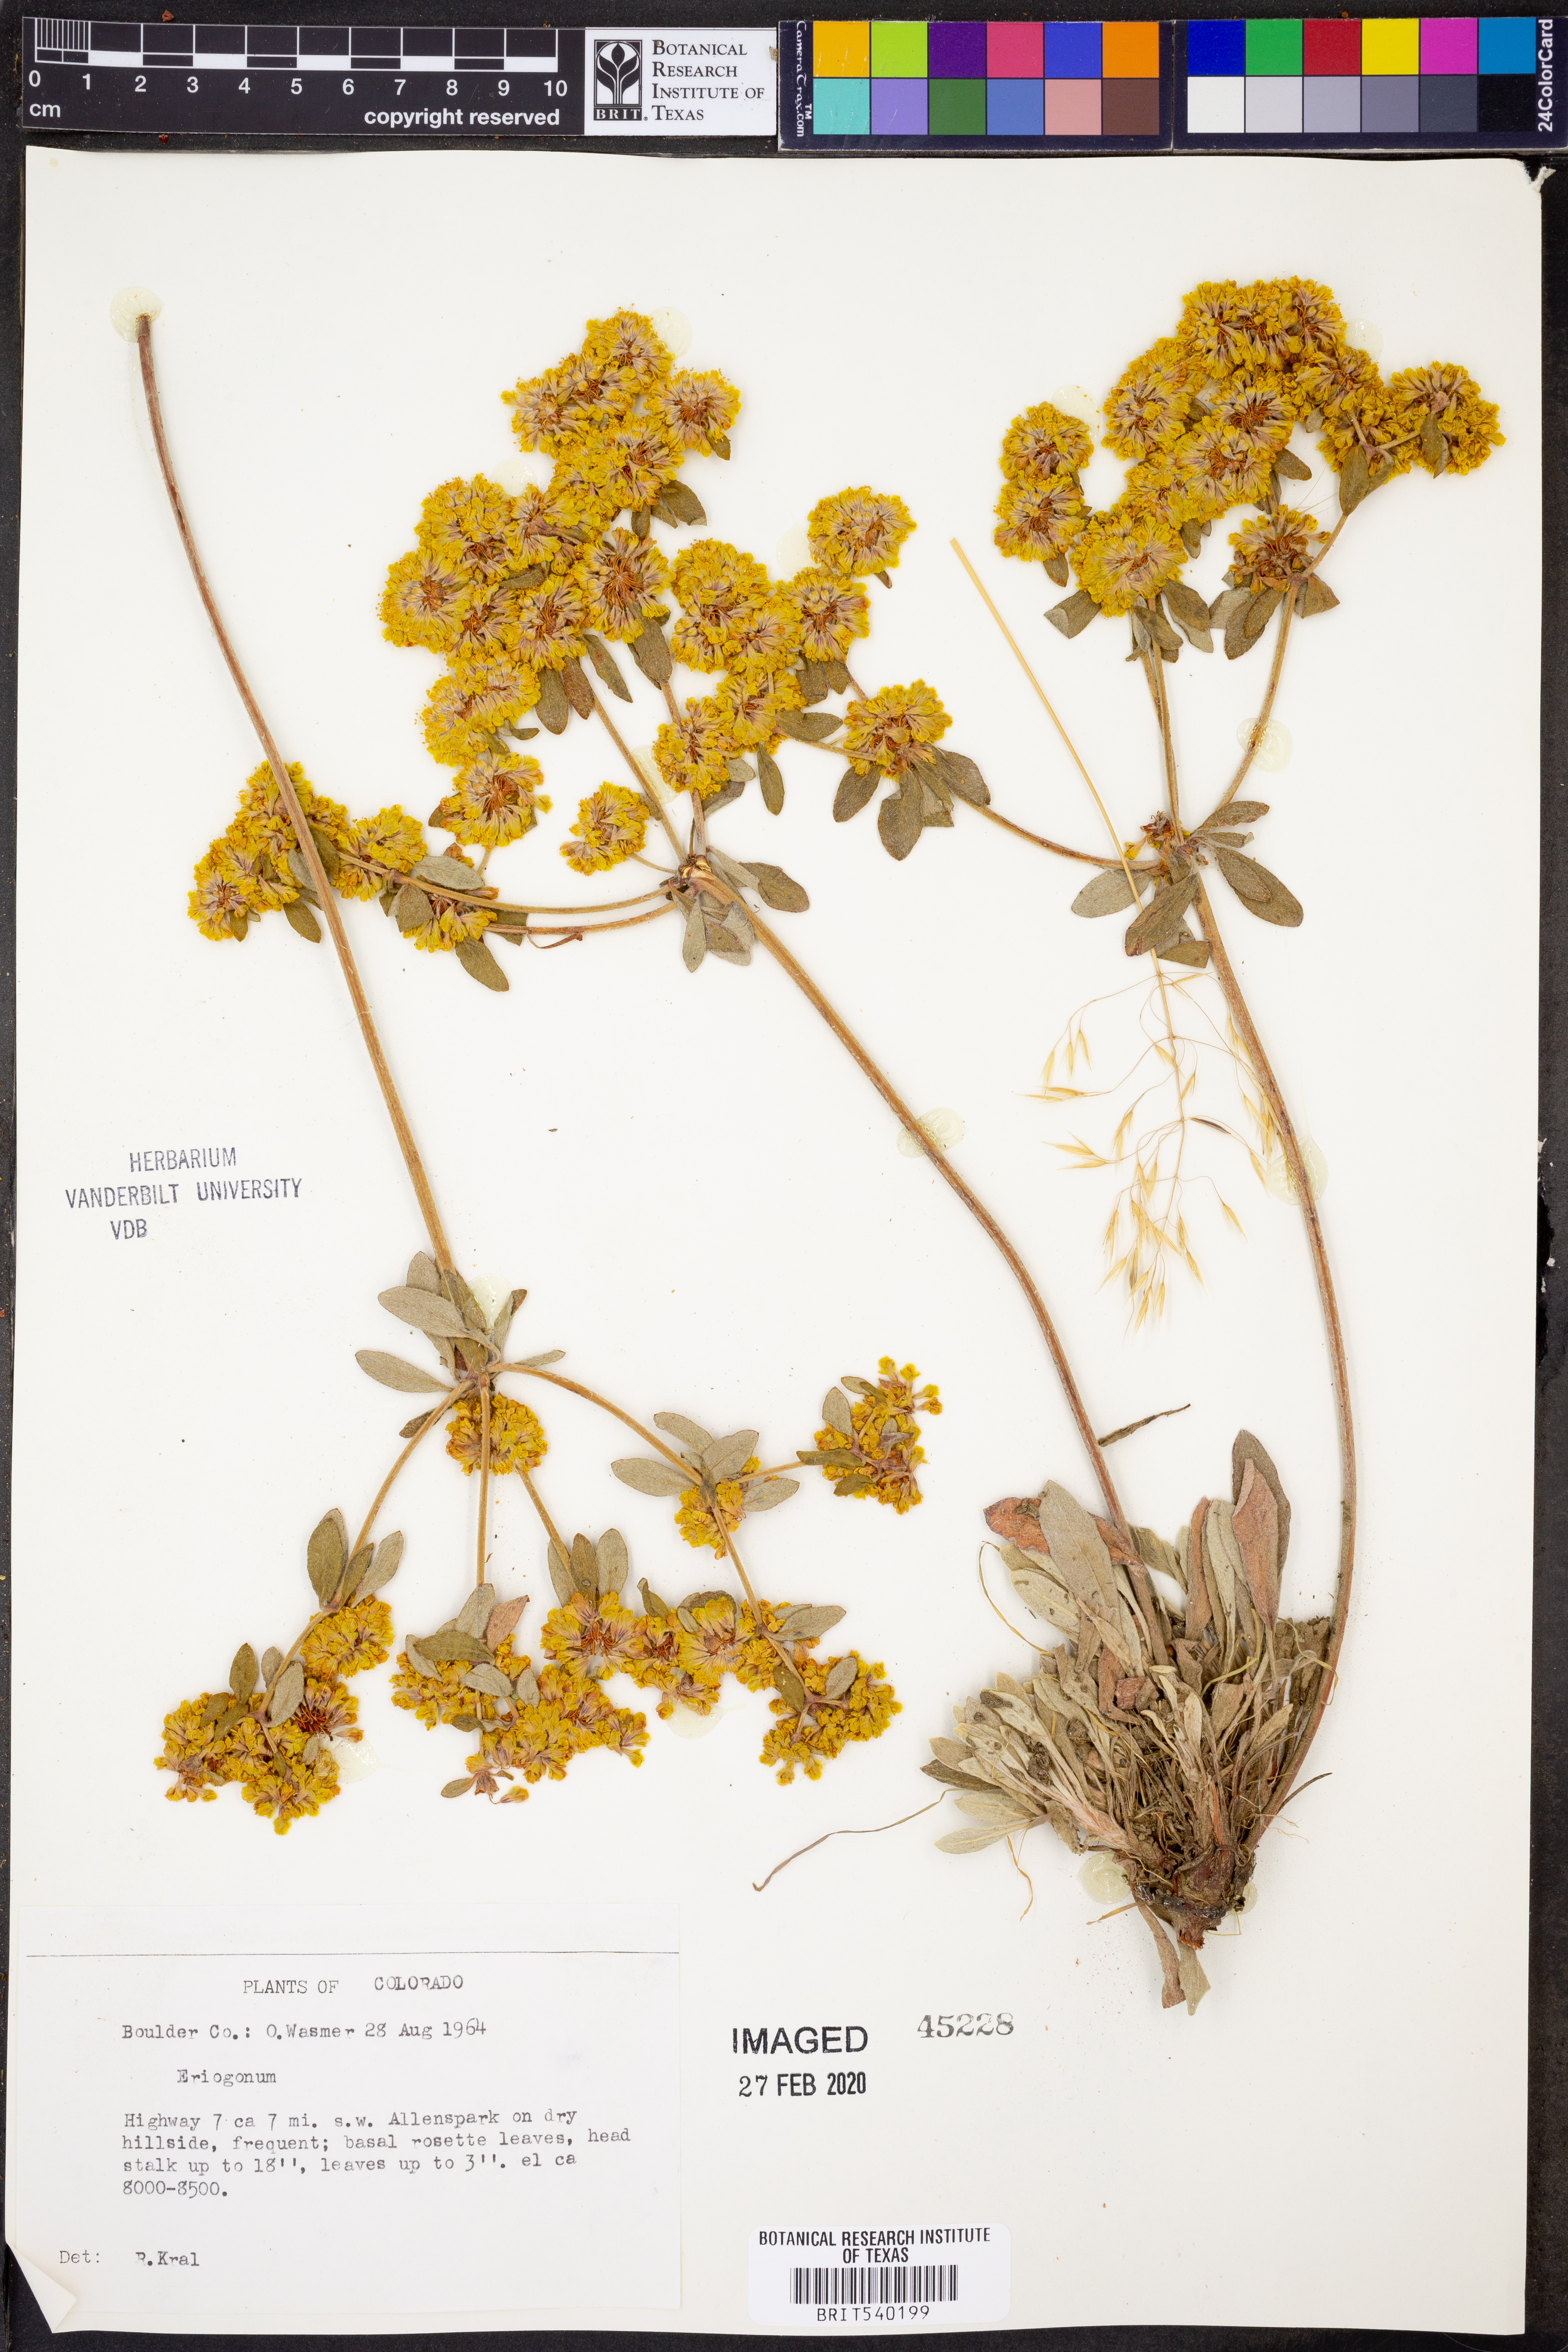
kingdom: Plantae
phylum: Tracheophyta
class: Magnoliopsida
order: Caryophyllales
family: Polygonaceae
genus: Eriogonum
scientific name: Eriogonum
